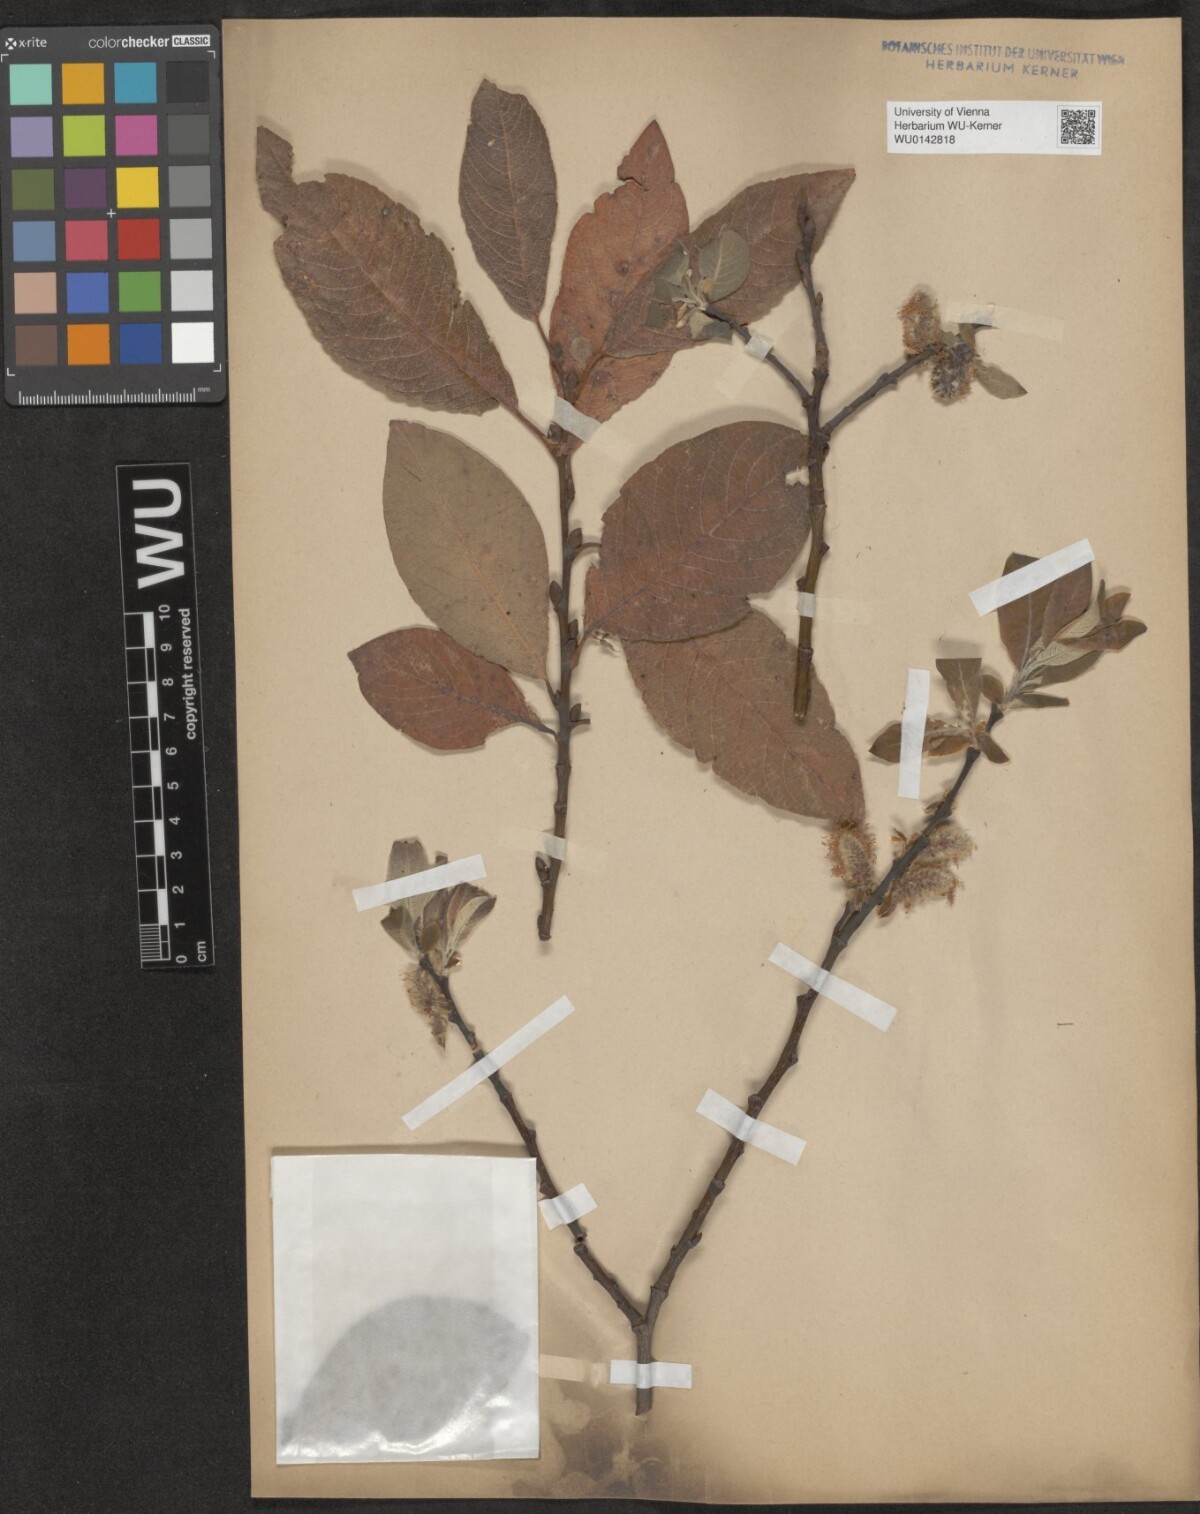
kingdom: Plantae
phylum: Tracheophyta
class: Magnoliopsida
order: Malpighiales
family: Salicaceae
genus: Salix
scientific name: Salix macrophylla
